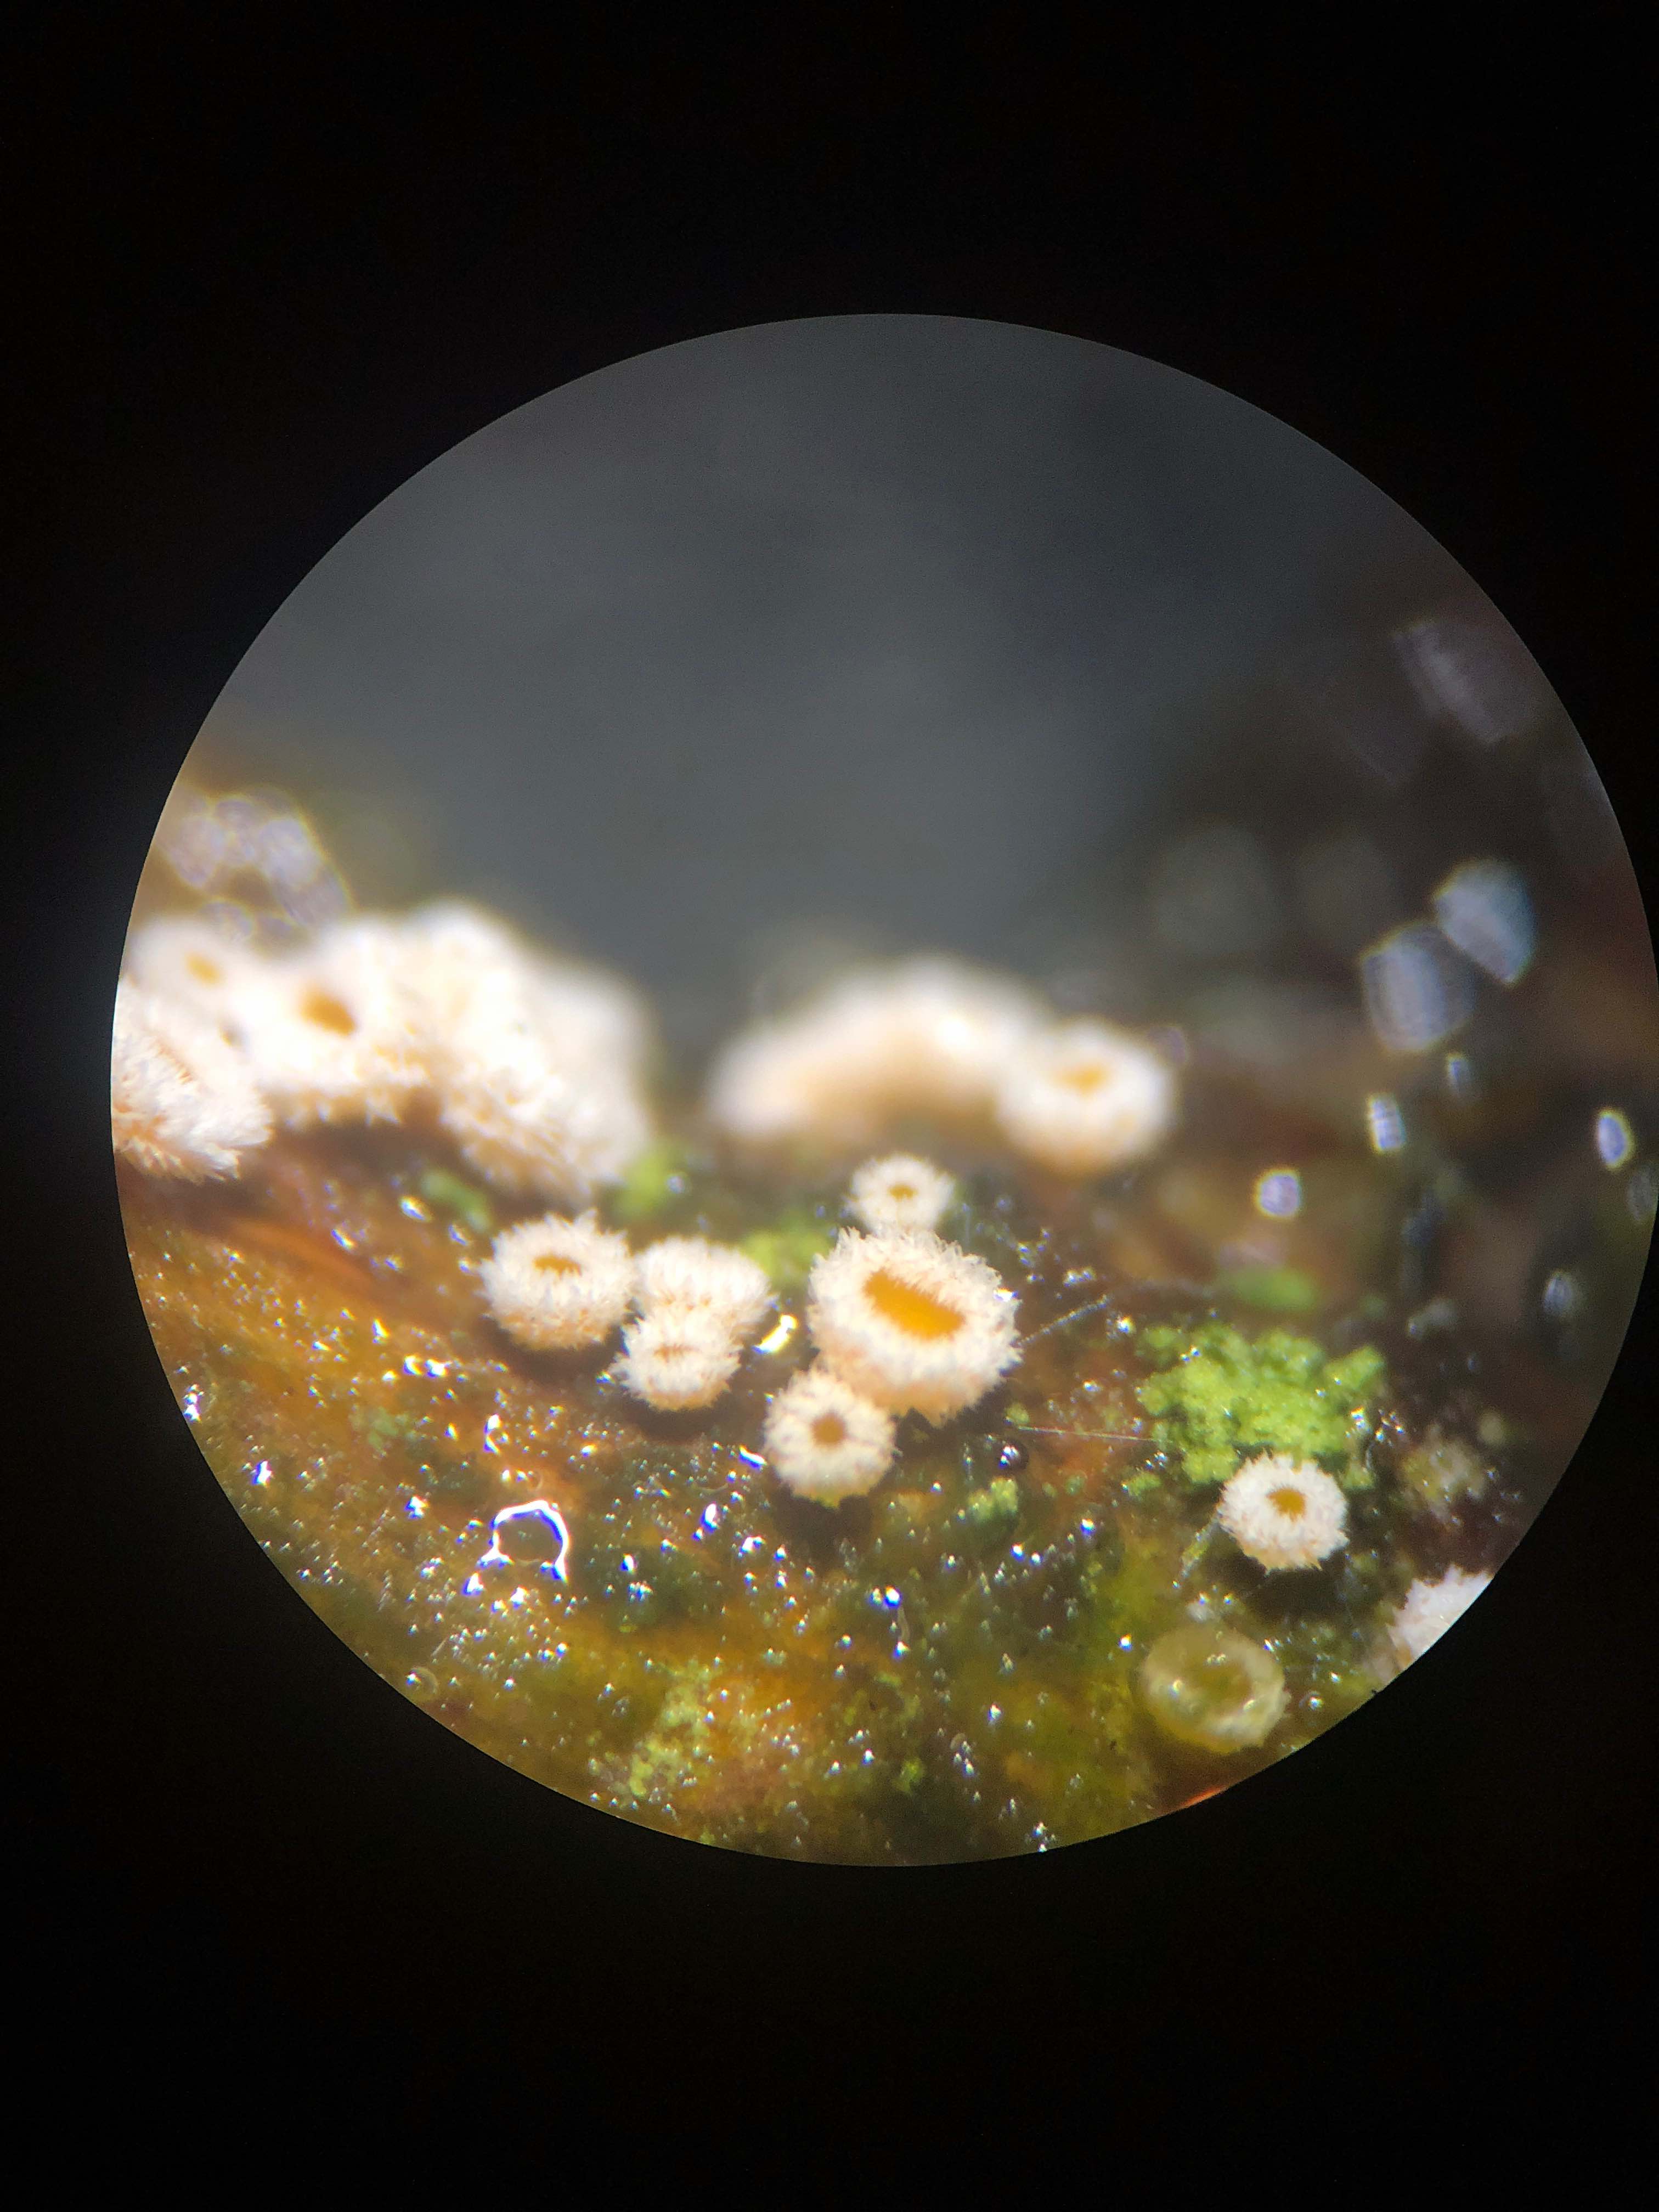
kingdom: Fungi
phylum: Ascomycota
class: Leotiomycetes
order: Helotiales
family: Lachnaceae
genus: Capitotricha
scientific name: Capitotricha bicolor
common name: prægtig frynseskive
